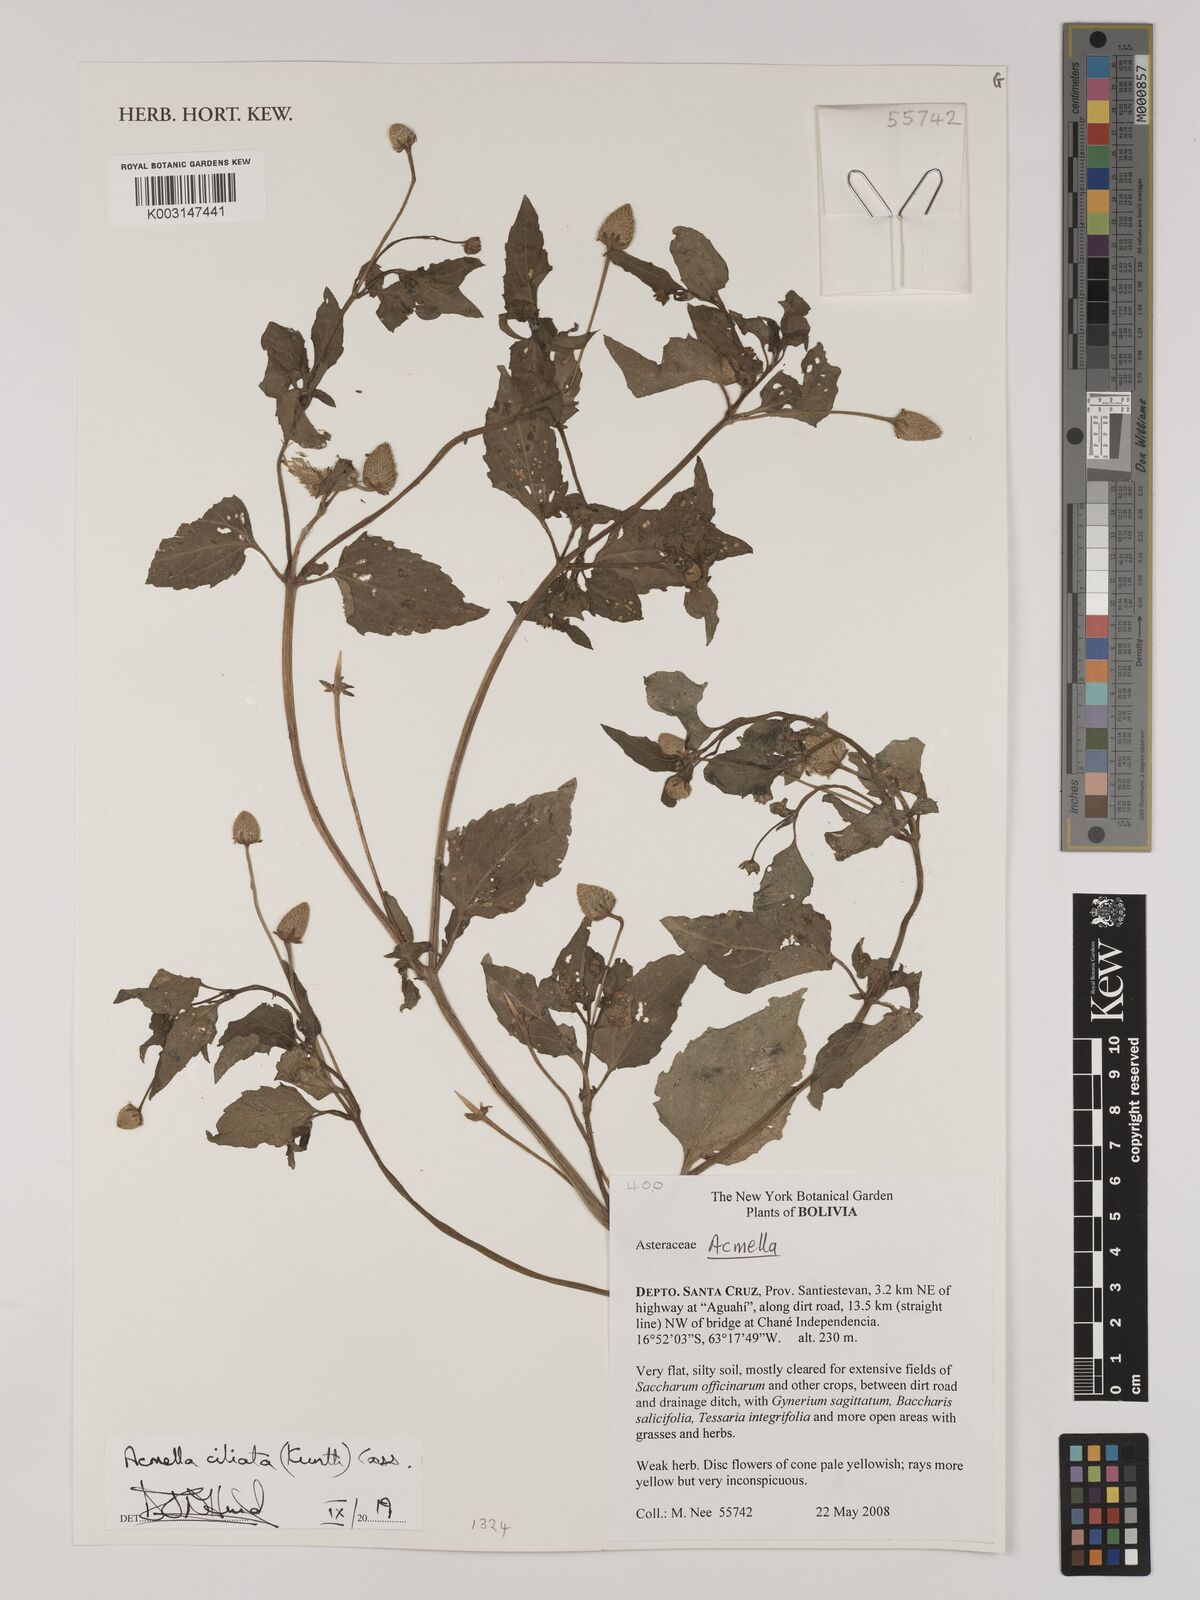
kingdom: Plantae
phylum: Tracheophyta
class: Magnoliopsida
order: Asterales
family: Asteraceae
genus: Acmella
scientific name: Acmella ciliata
